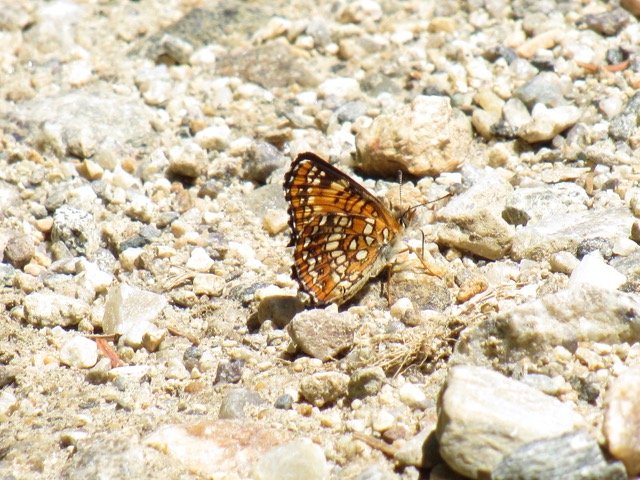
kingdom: Animalia
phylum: Arthropoda
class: Insecta
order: Lepidoptera
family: Nymphalidae
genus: Chlosyne
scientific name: Chlosyne harrisii
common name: Harris's Checkerspot
